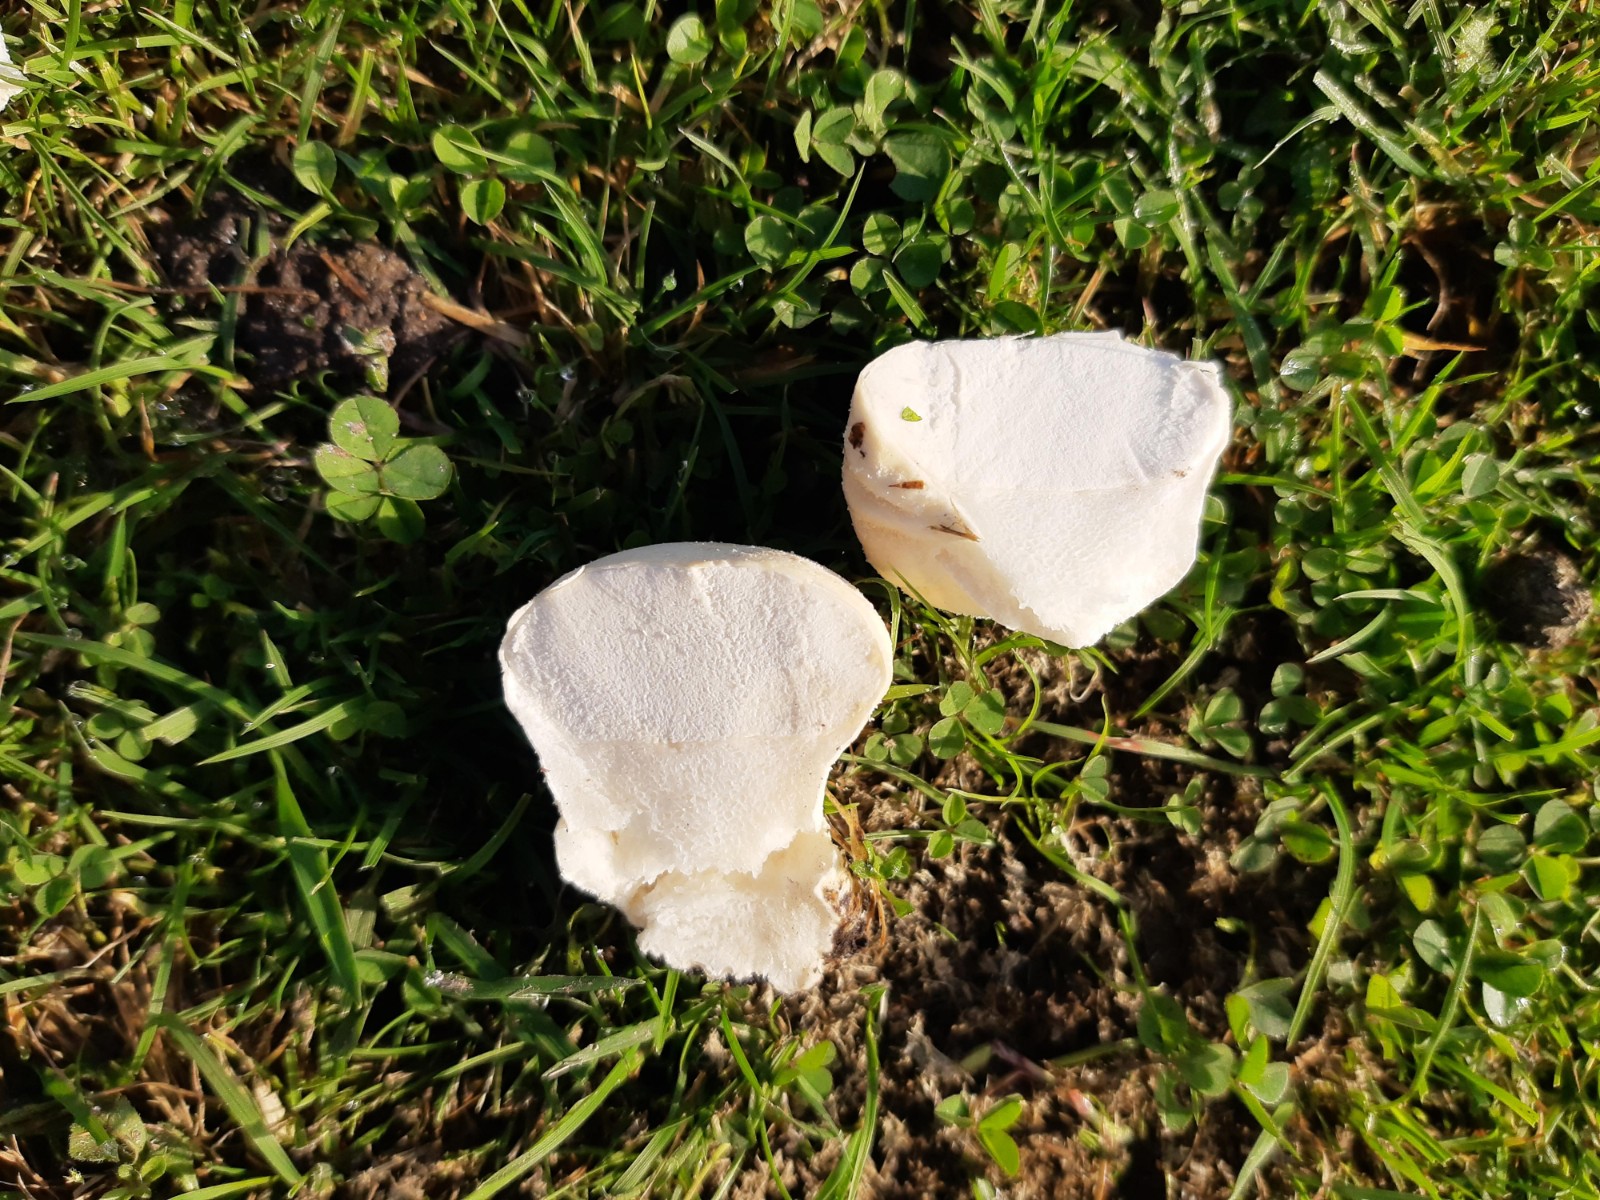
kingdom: Fungi
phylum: Basidiomycota
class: Agaricomycetes
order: Agaricales
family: Lycoperdaceae
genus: Lycoperdon
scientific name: Lycoperdon pratense
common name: flad støvbold
